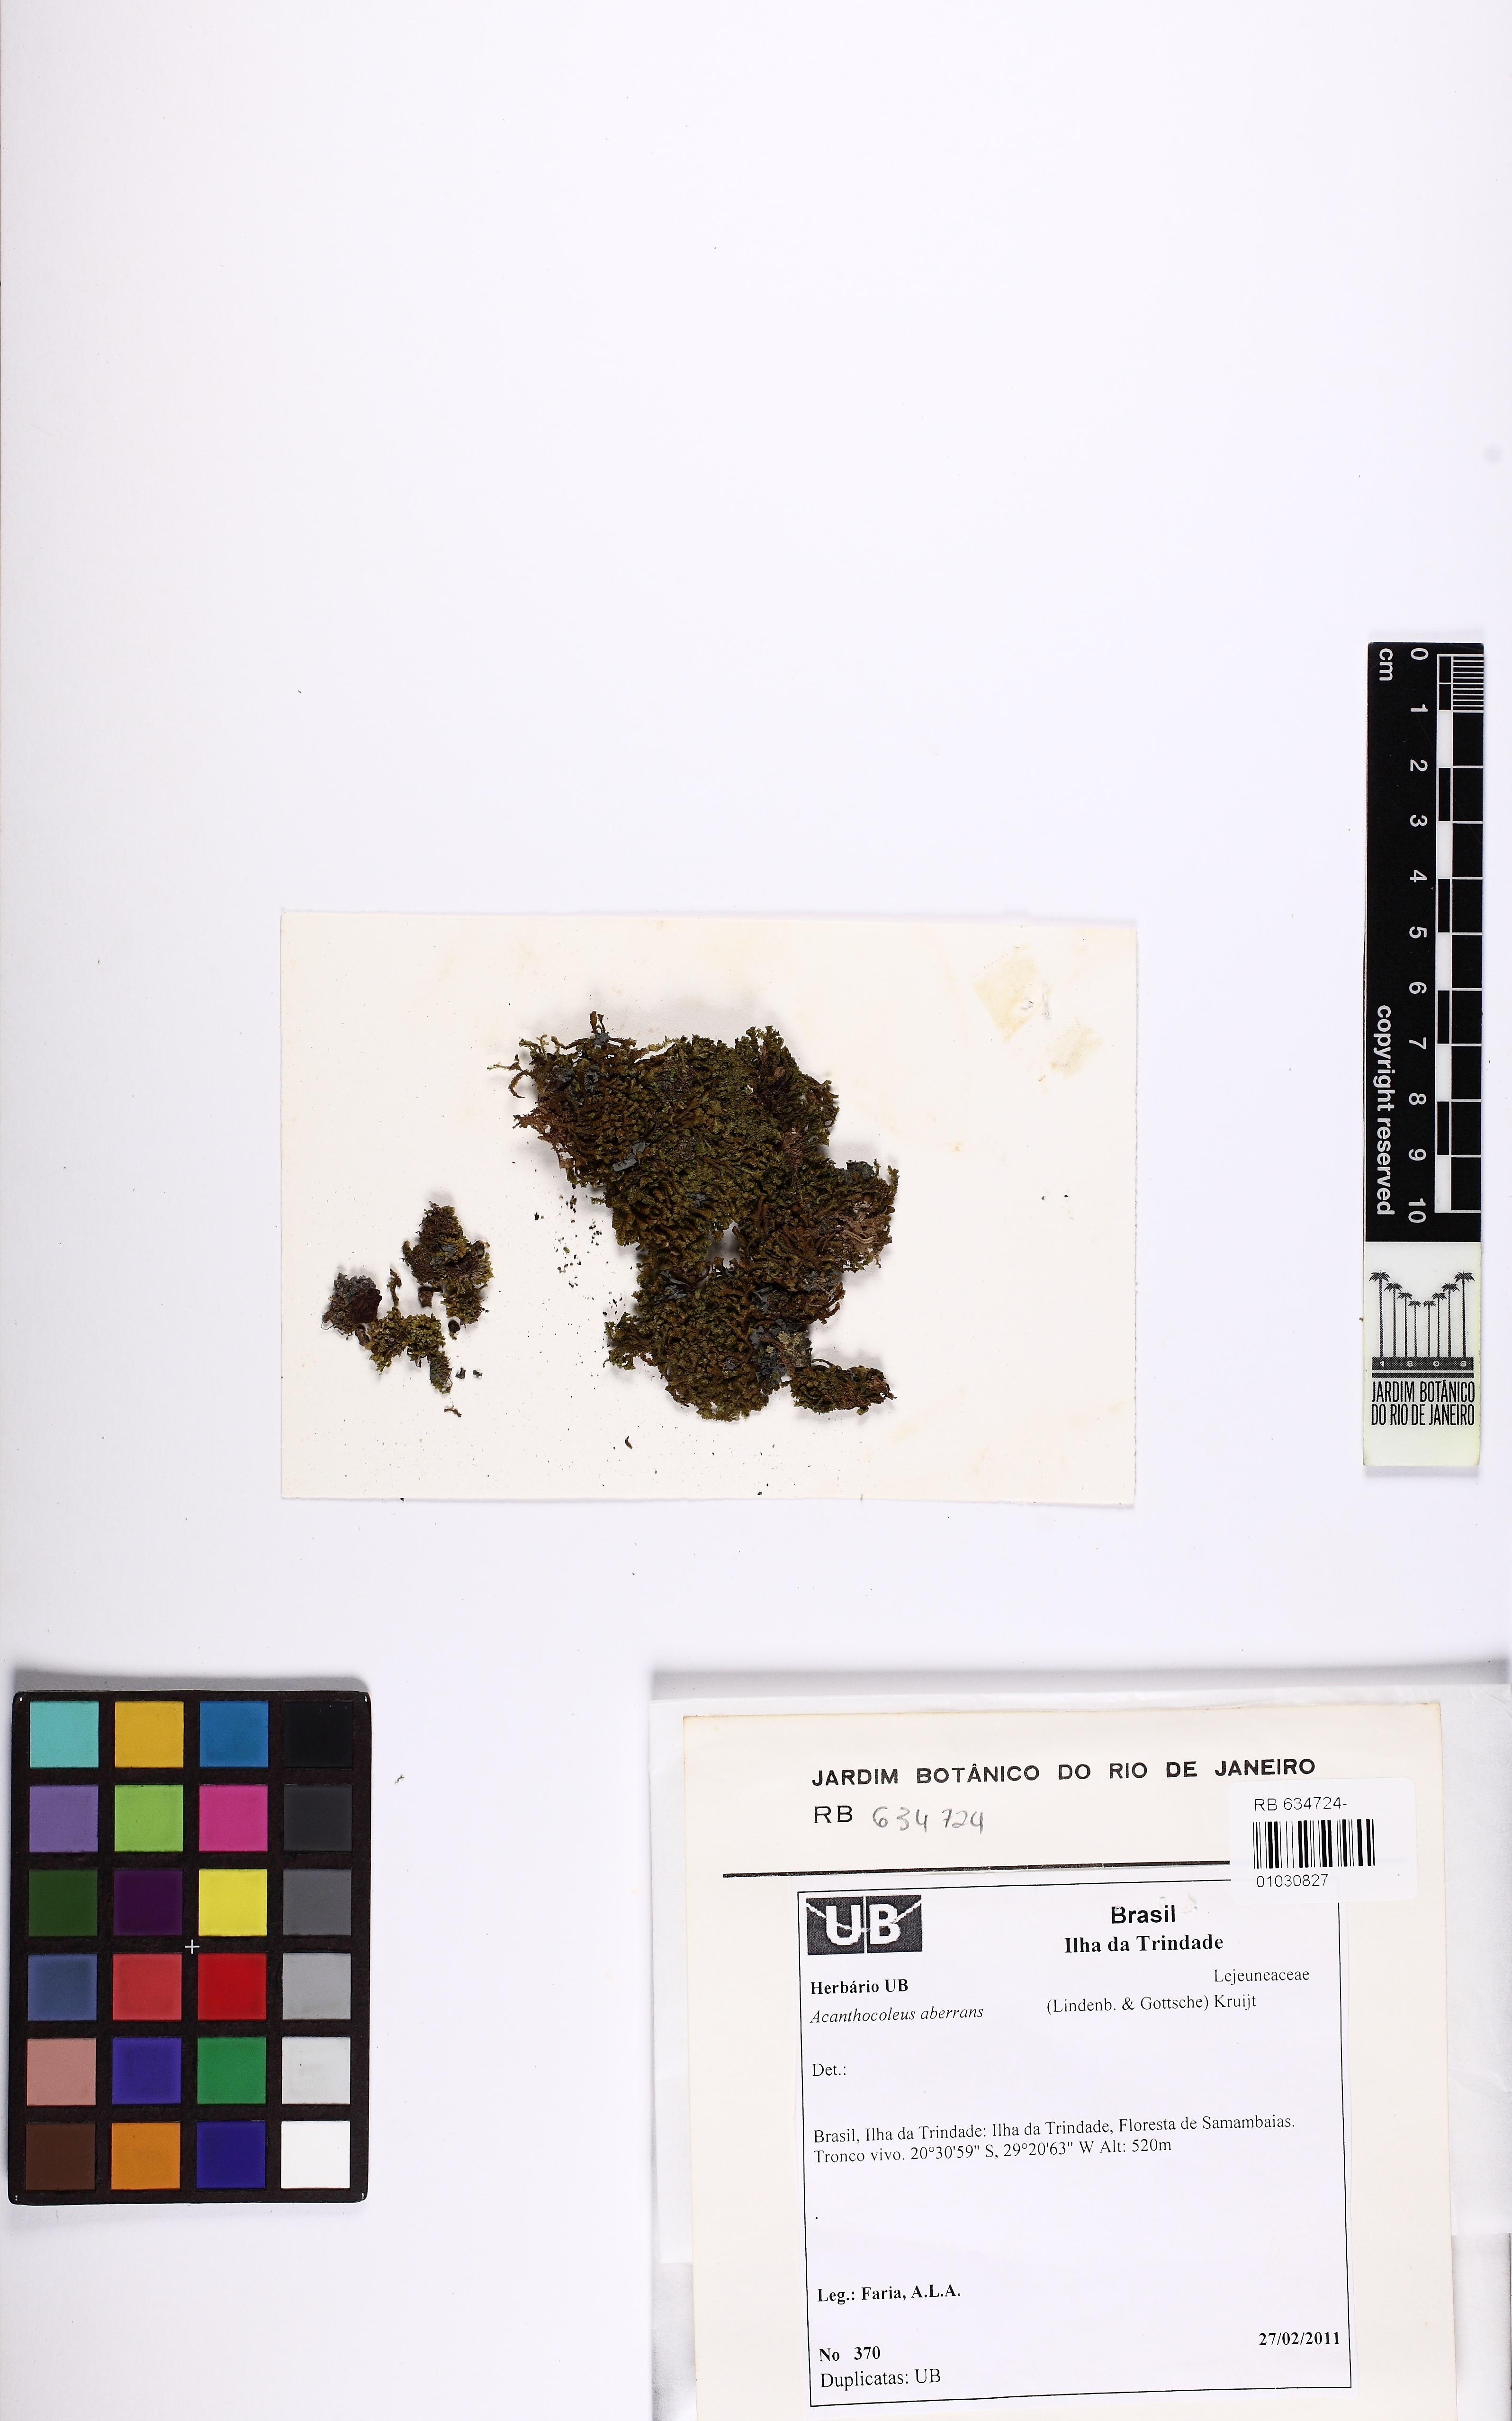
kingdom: Plantae
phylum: Marchantiophyta
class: Jungermanniopsida
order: Porellales
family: Lejeuneaceae
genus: Acanthocoleus
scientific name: Acanthocoleus aberrans
